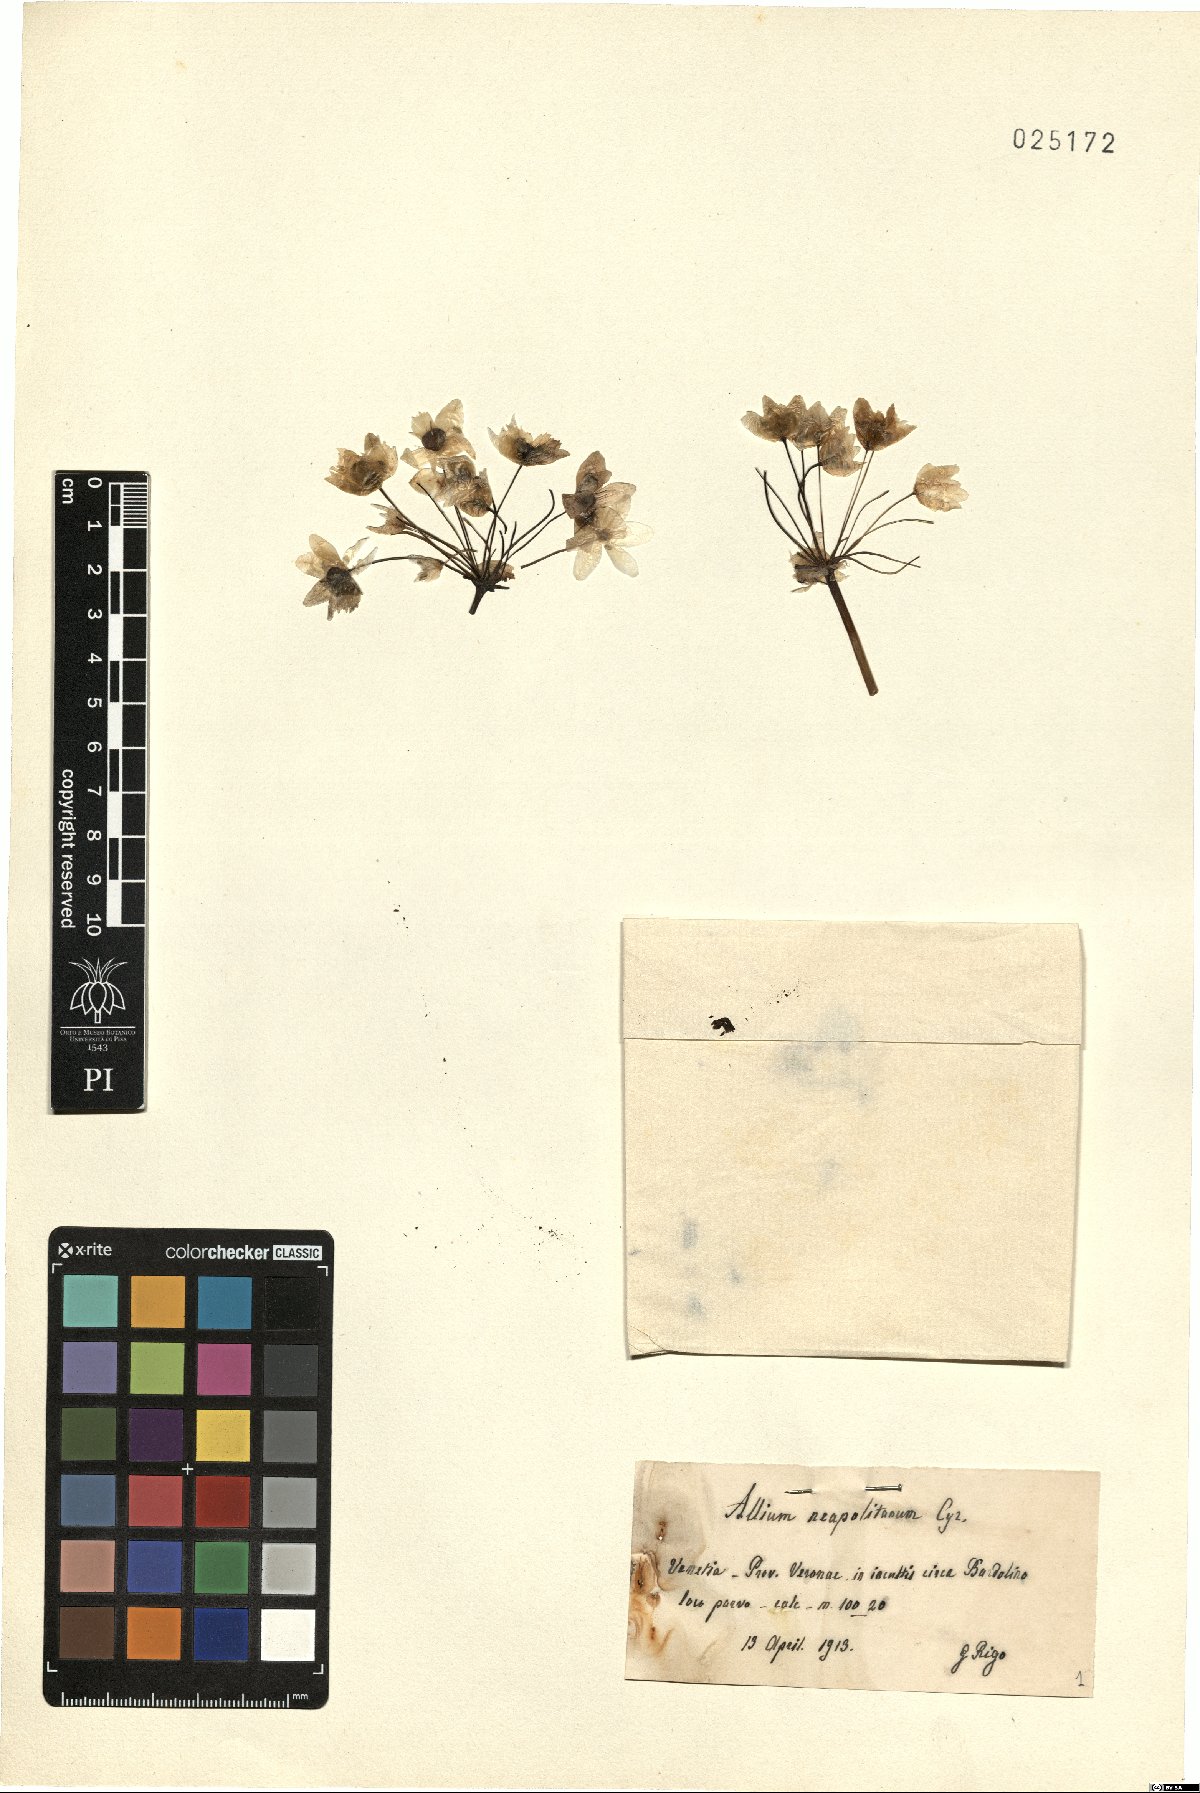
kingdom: Plantae
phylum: Tracheophyta
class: Liliopsida
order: Asparagales
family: Amaryllidaceae
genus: Allium
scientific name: Allium neapolitanum
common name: Neapolitan garlic
